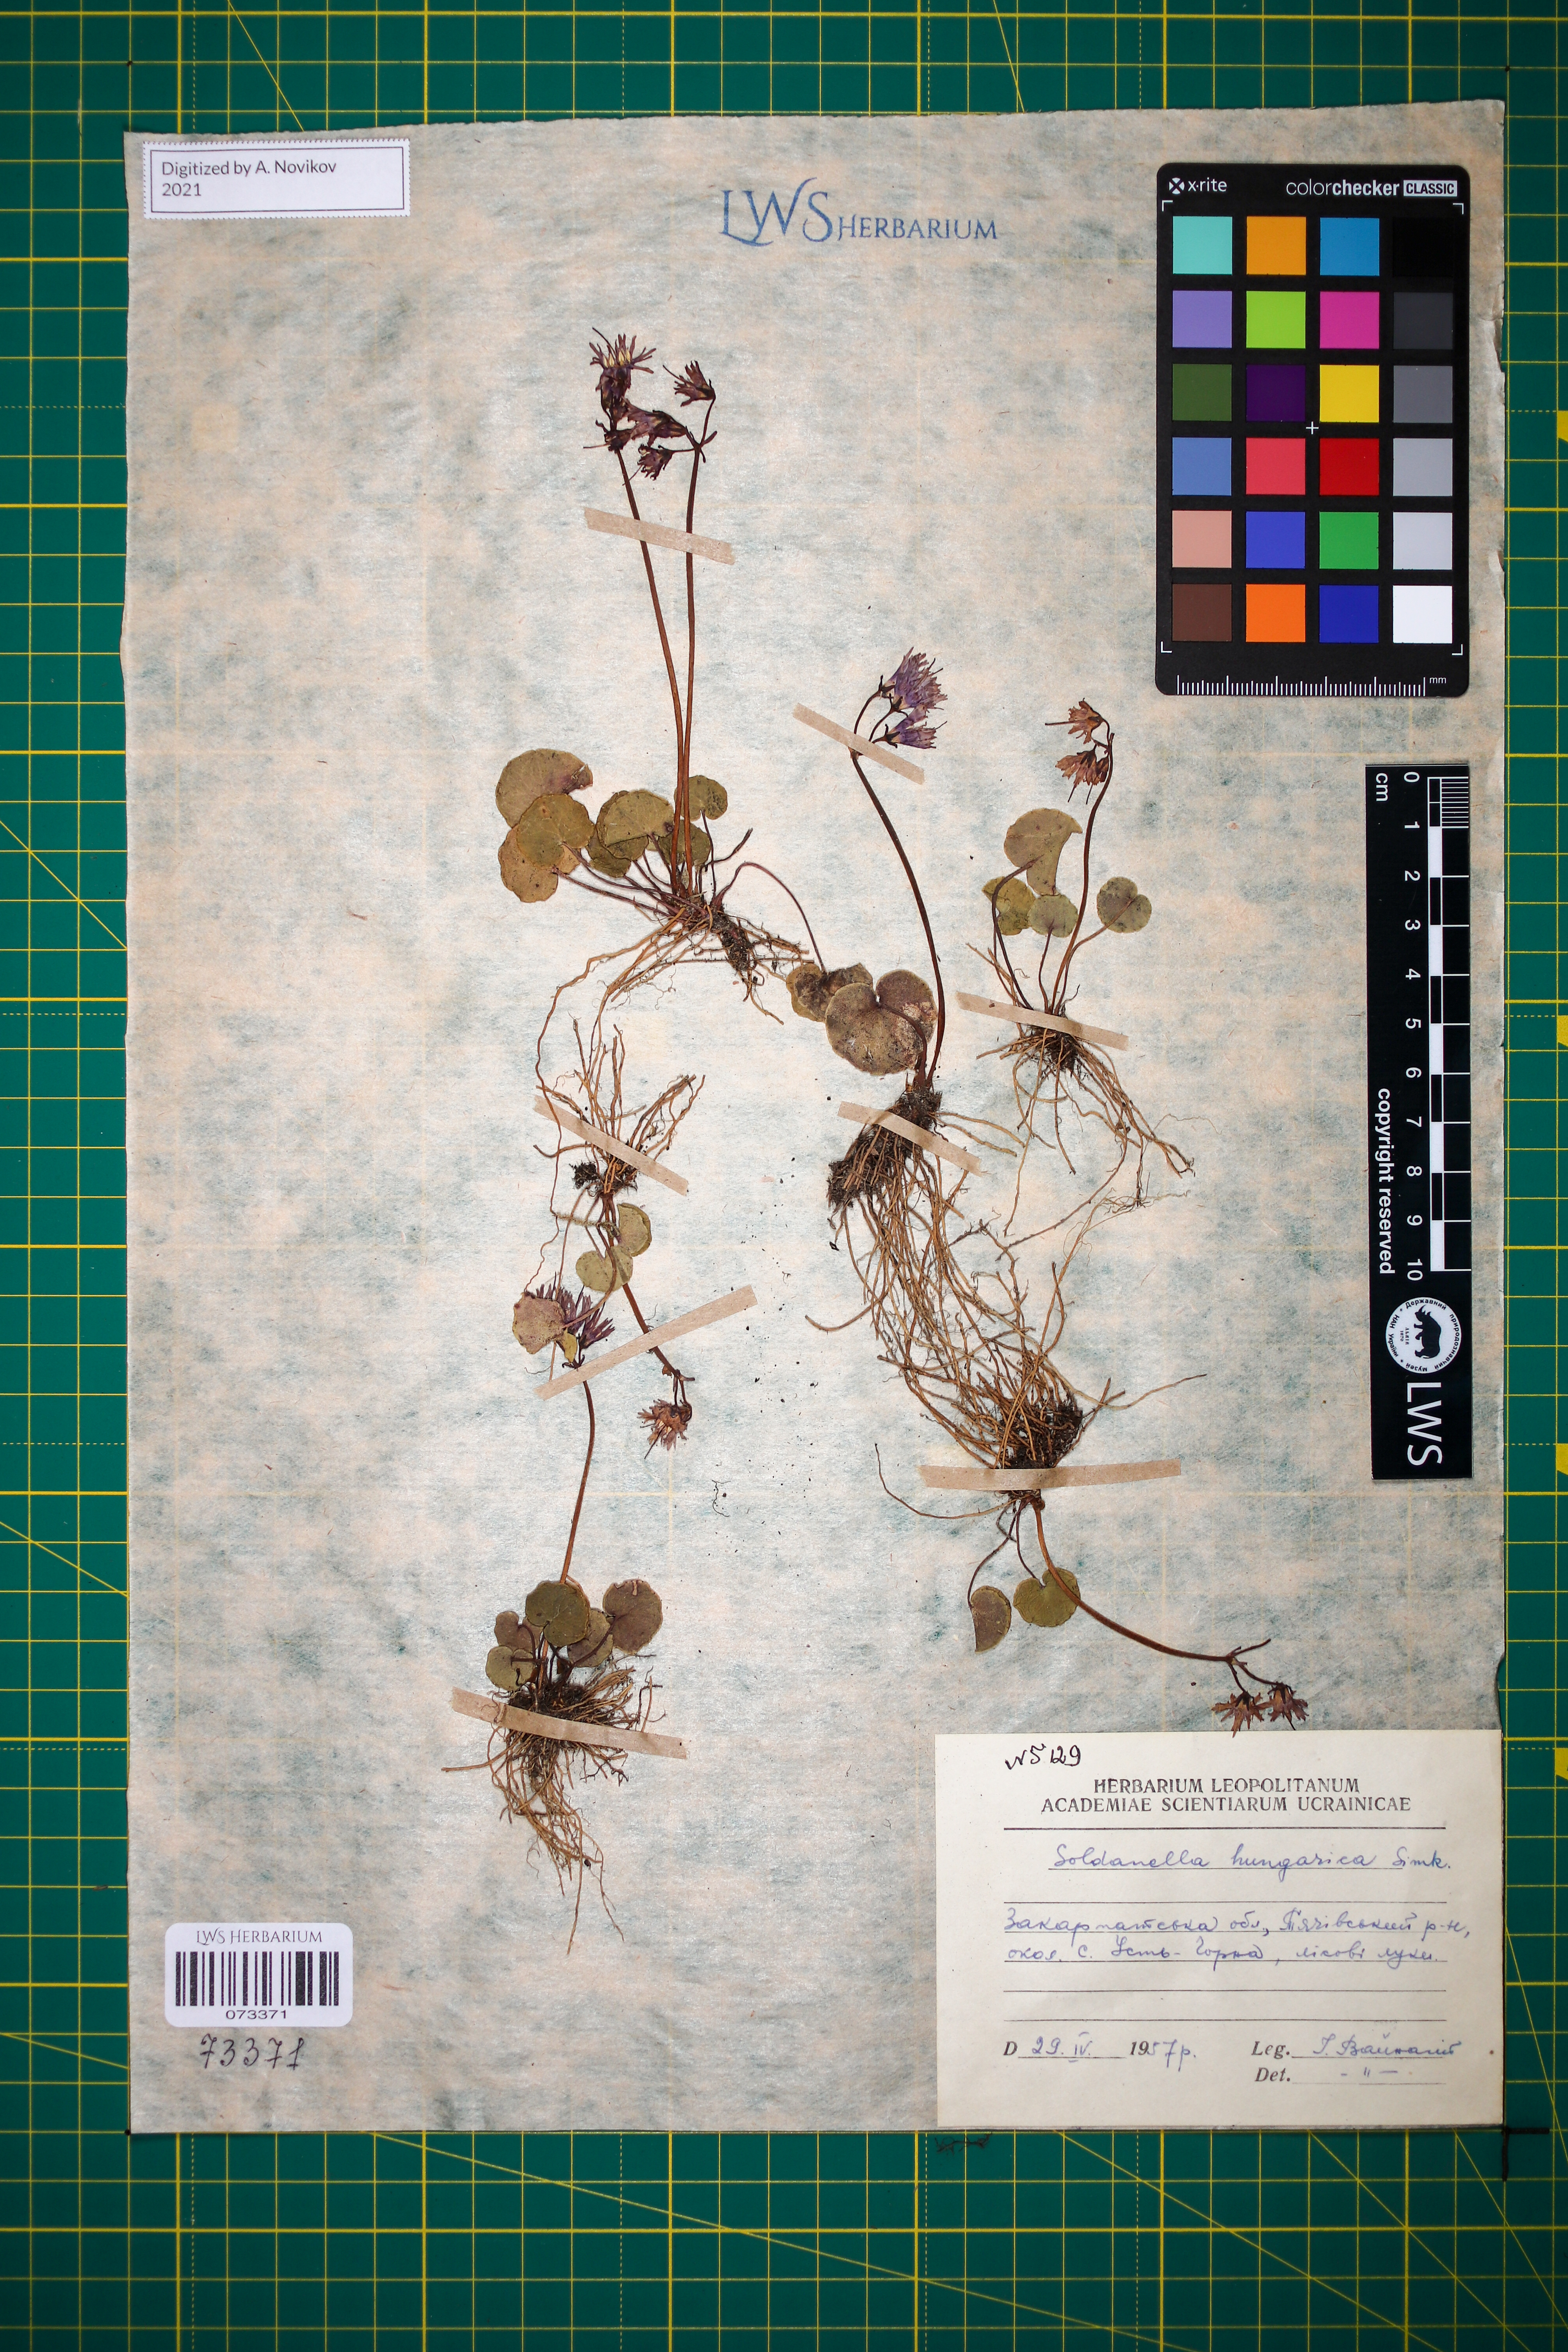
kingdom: Plantae
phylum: Tracheophyta
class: Magnoliopsida
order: Ericales
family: Primulaceae
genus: Soldanella
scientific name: Soldanella hungarica
